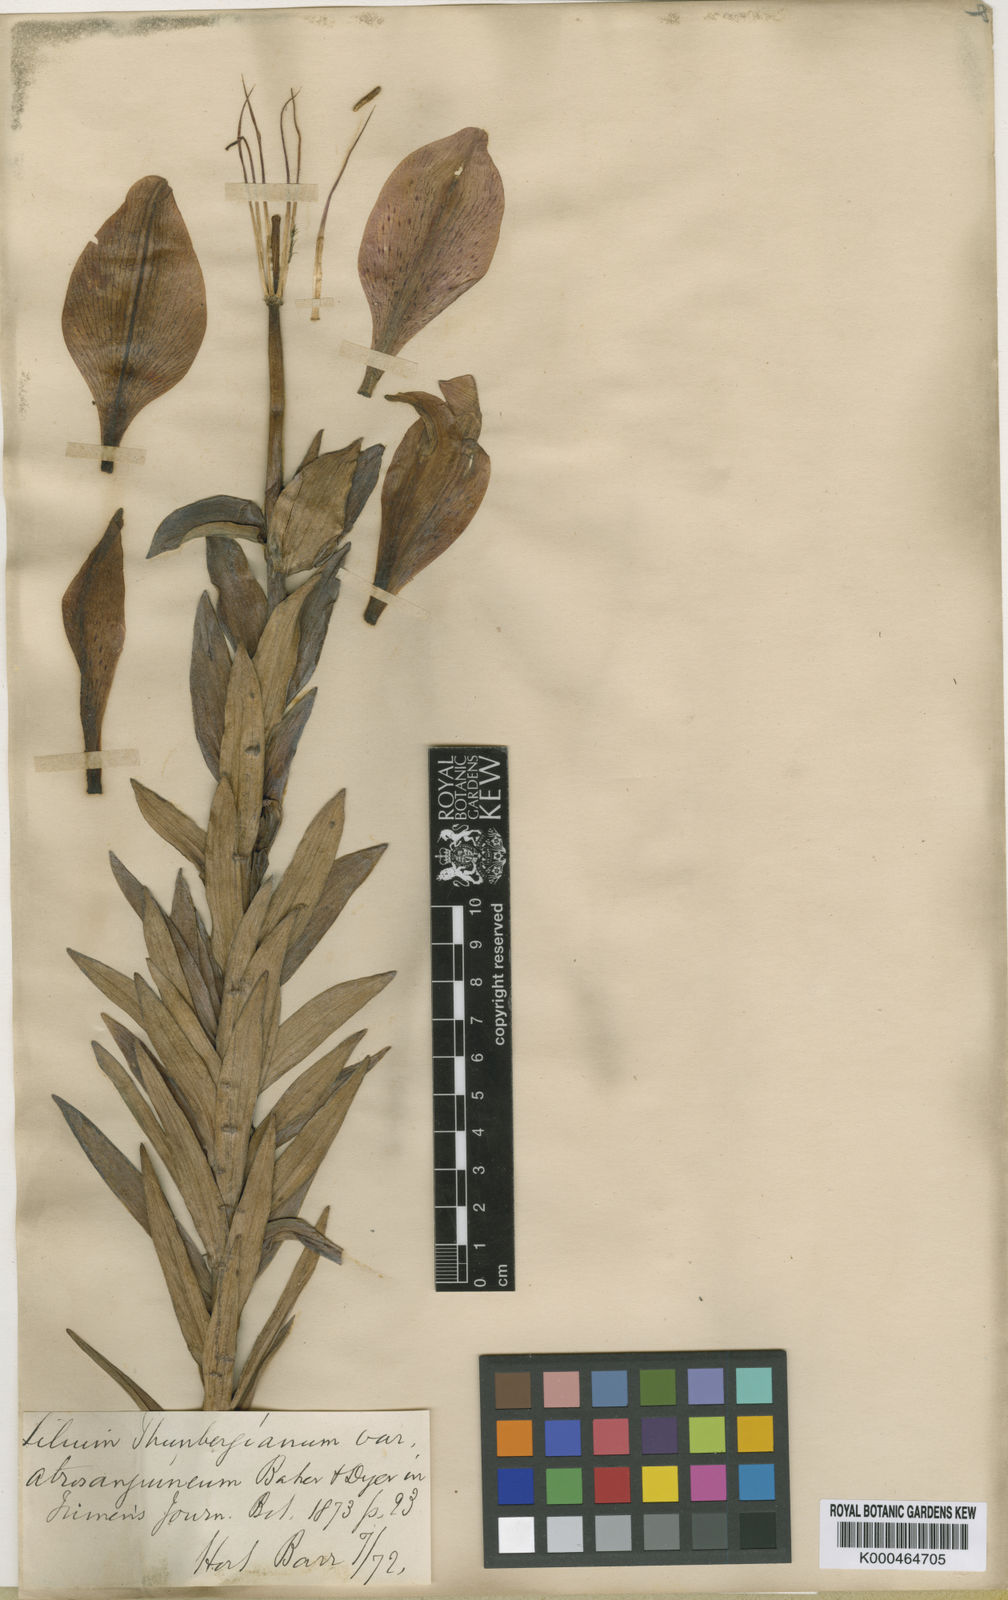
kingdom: Plantae
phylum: Tracheophyta
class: Liliopsida
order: Liliales
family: Liliaceae
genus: Lilium
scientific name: Lilium
